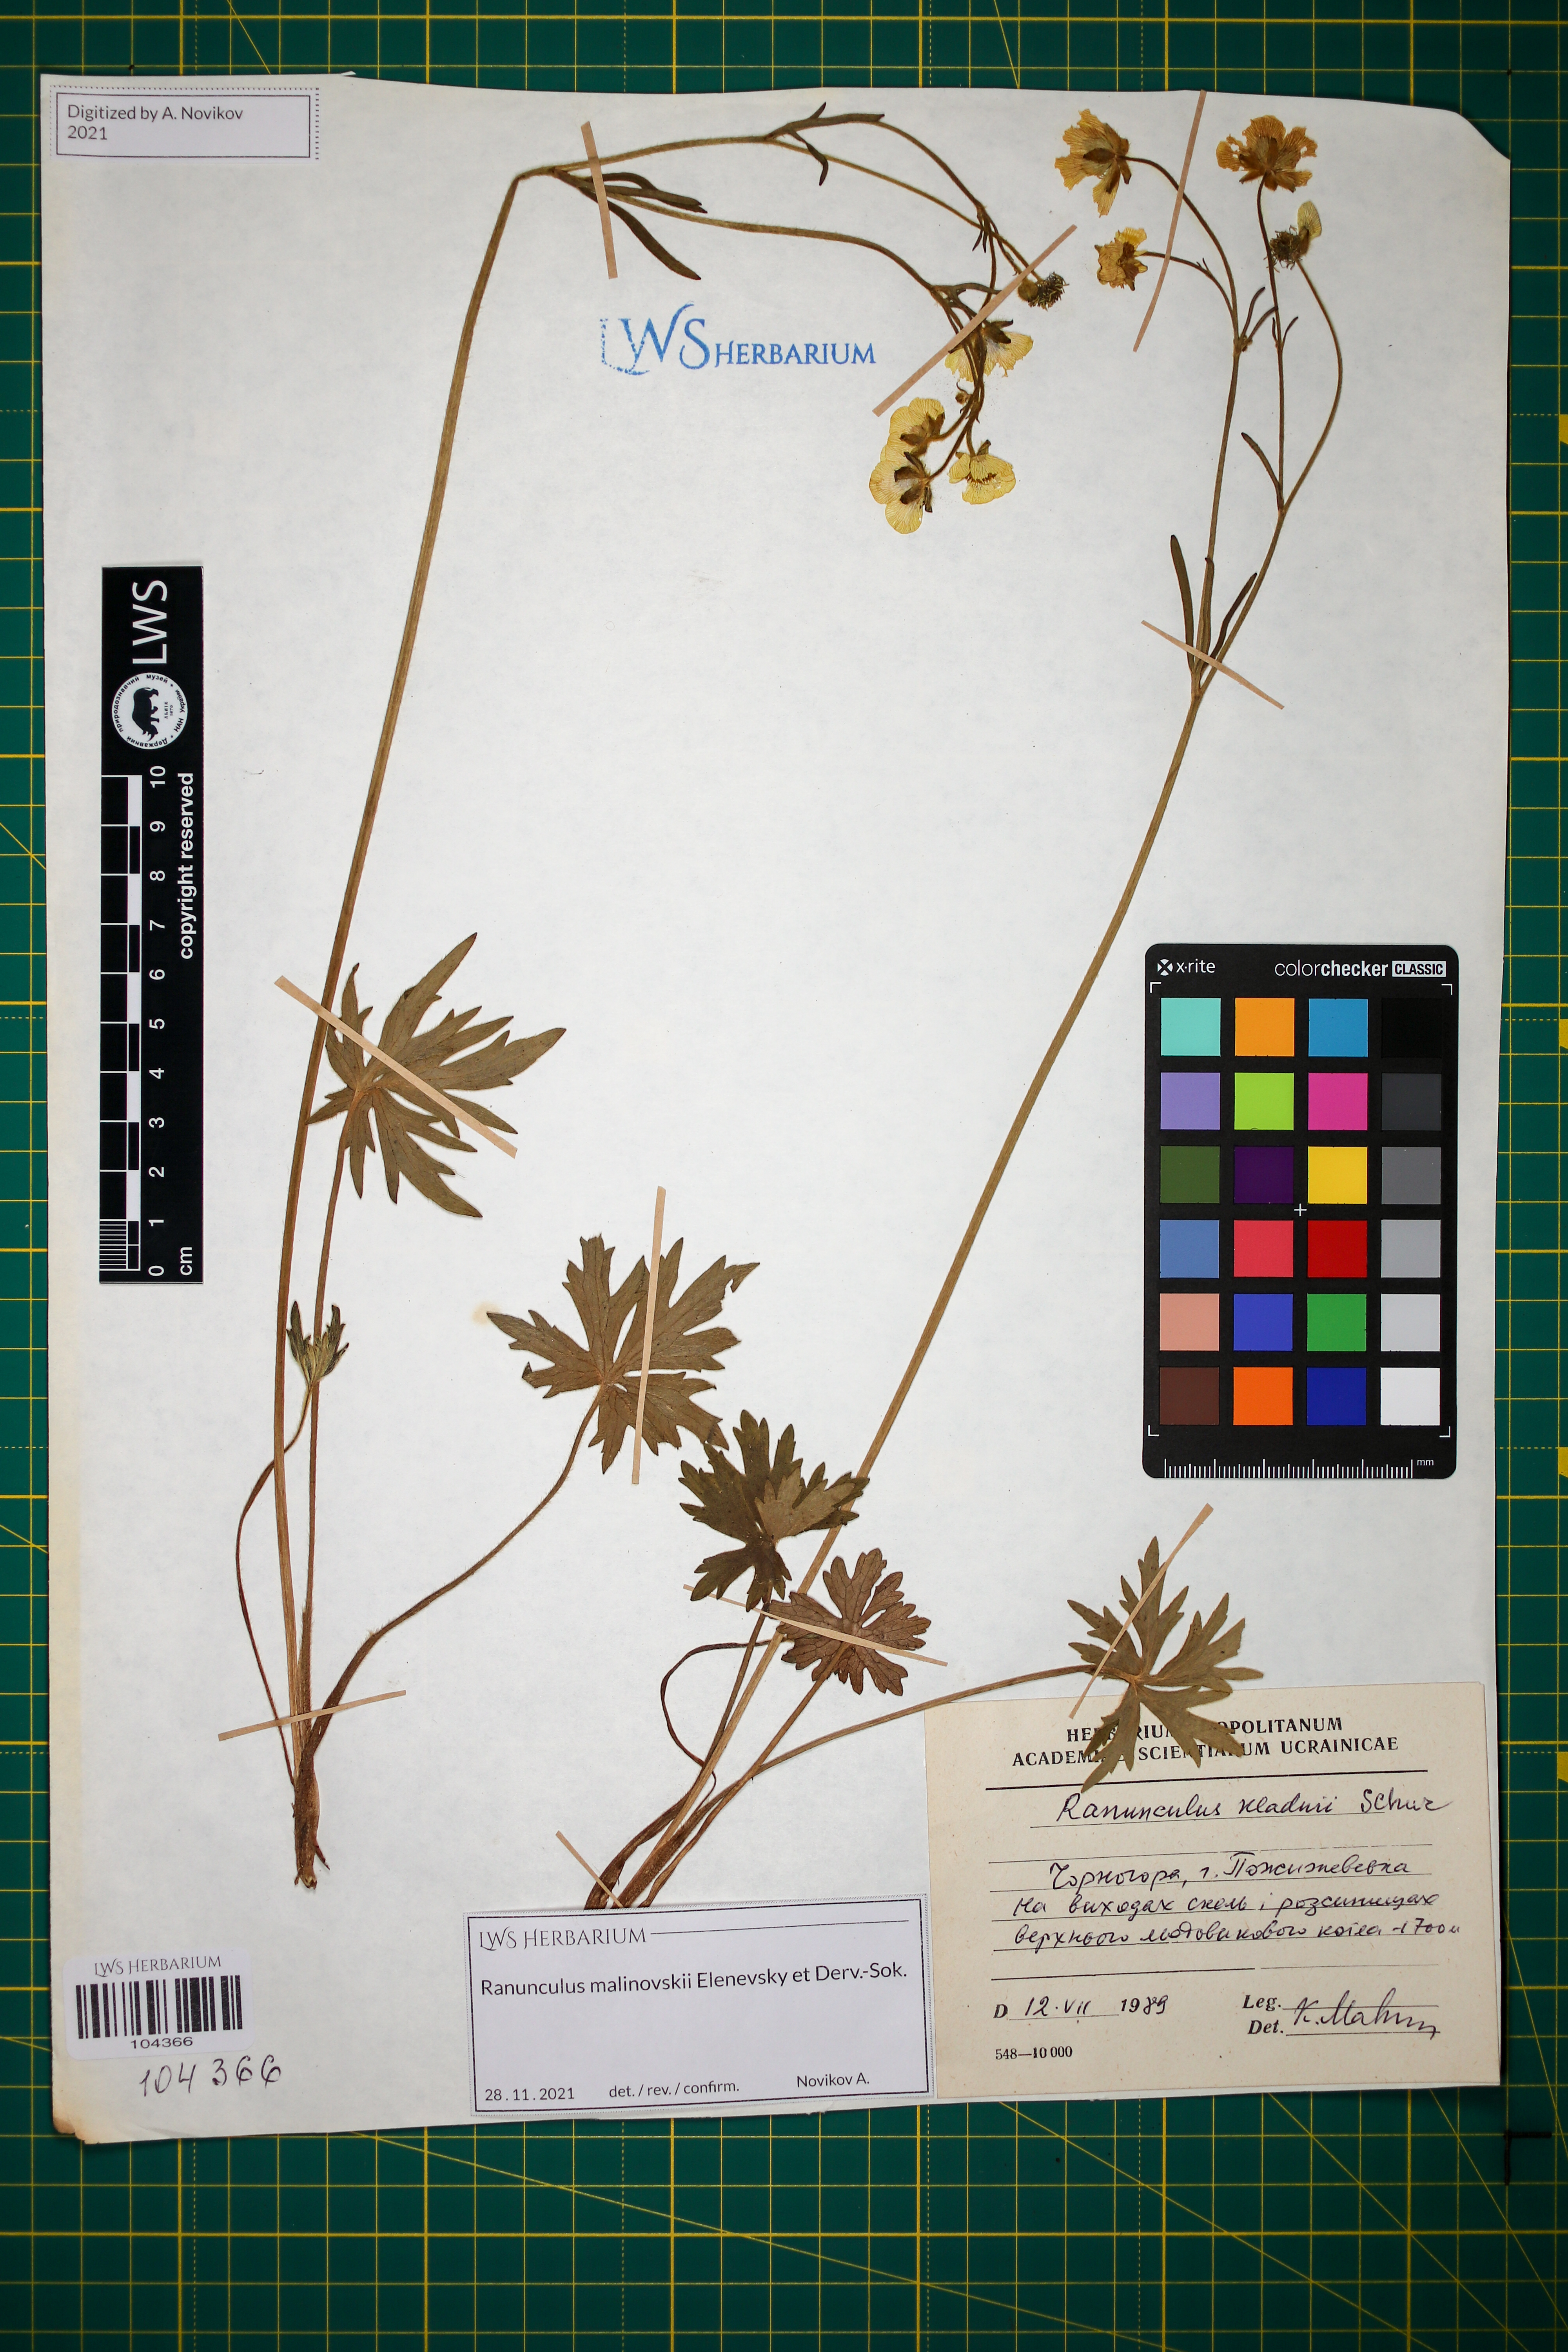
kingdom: Plantae
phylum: Tracheophyta
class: Magnoliopsida
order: Ranunculales
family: Ranunculaceae
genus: Ranunculus
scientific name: Ranunculus malinovskii
